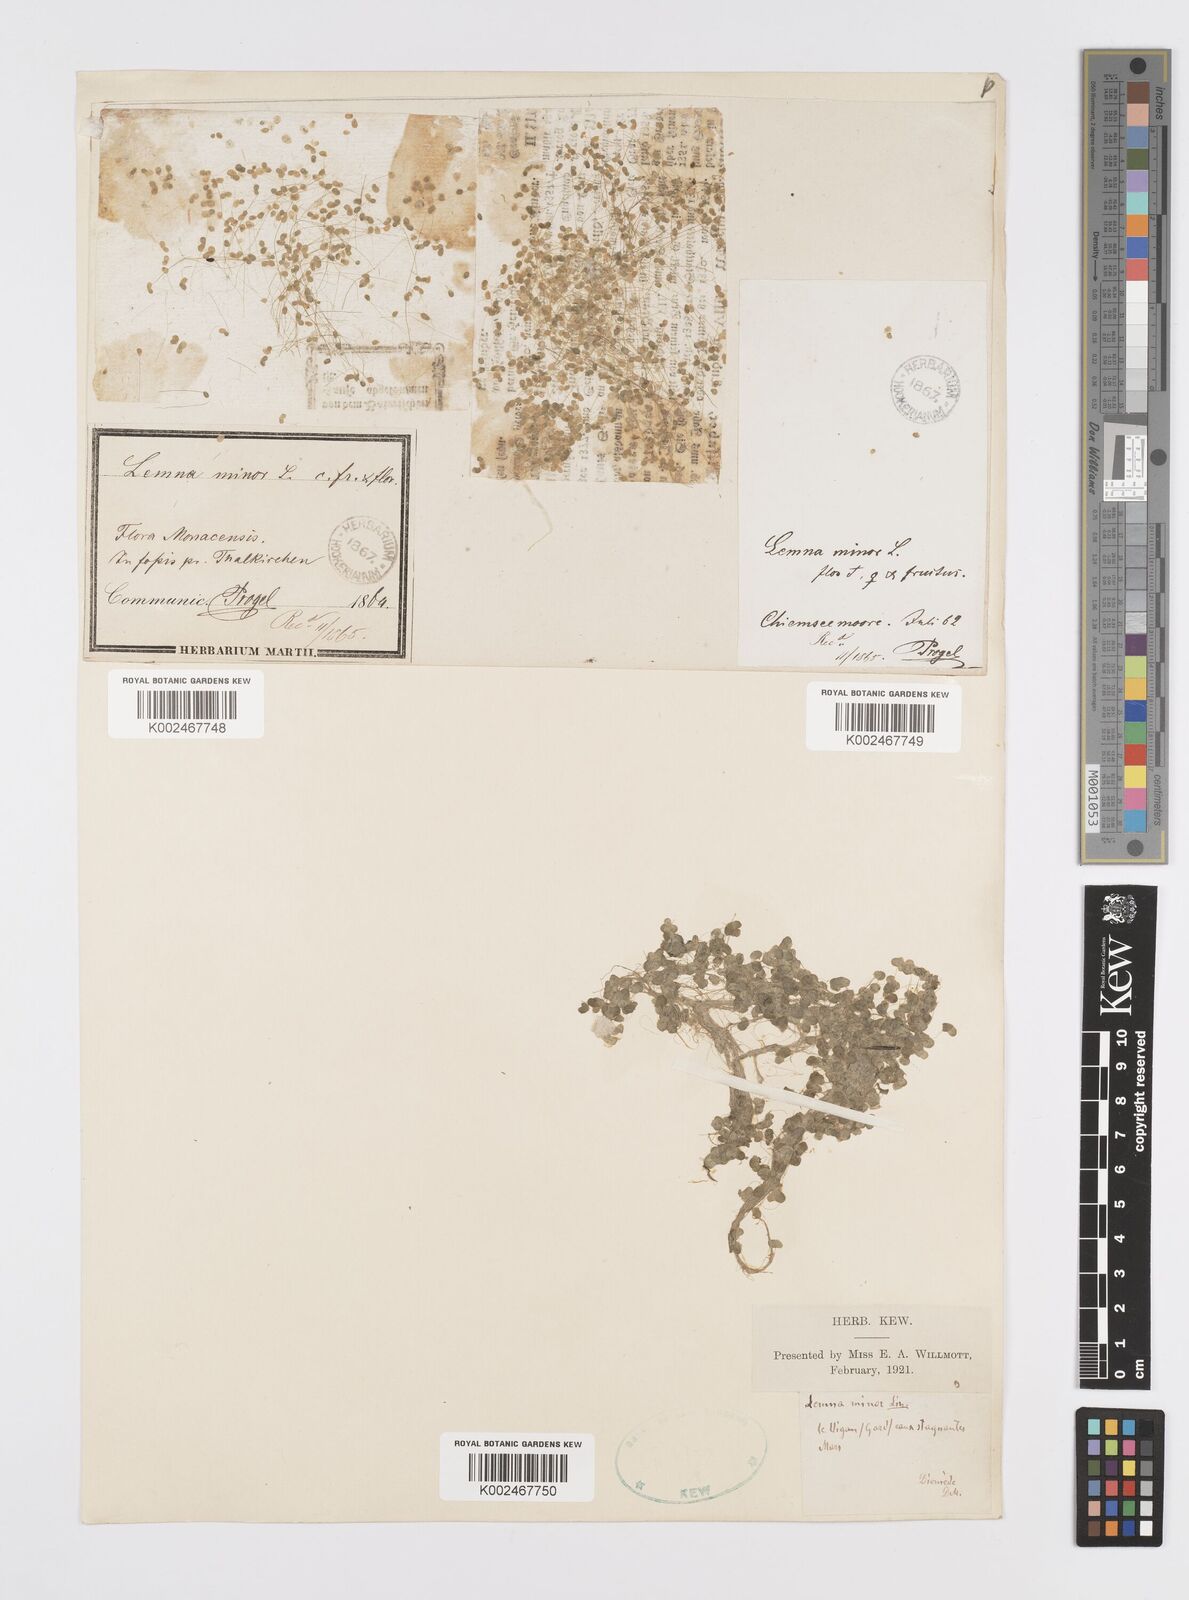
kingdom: Plantae
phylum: Tracheophyta
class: Liliopsida
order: Alismatales
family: Araceae
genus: Lemna
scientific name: Lemna minor
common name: Common duckweed
